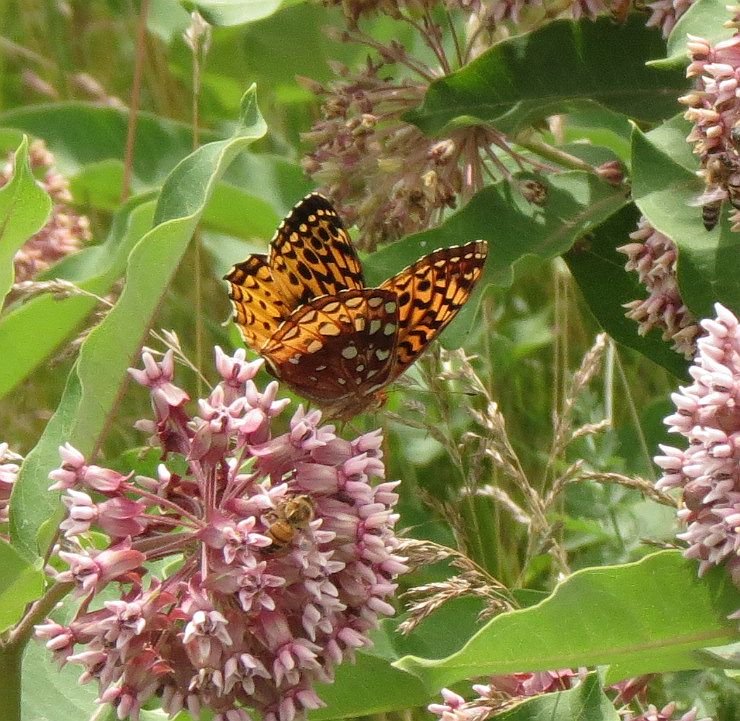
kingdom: Animalia
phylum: Arthropoda
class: Insecta
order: Lepidoptera
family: Nymphalidae
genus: Speyeria
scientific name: Speyeria cybele
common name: Great Spangled Fritillary
